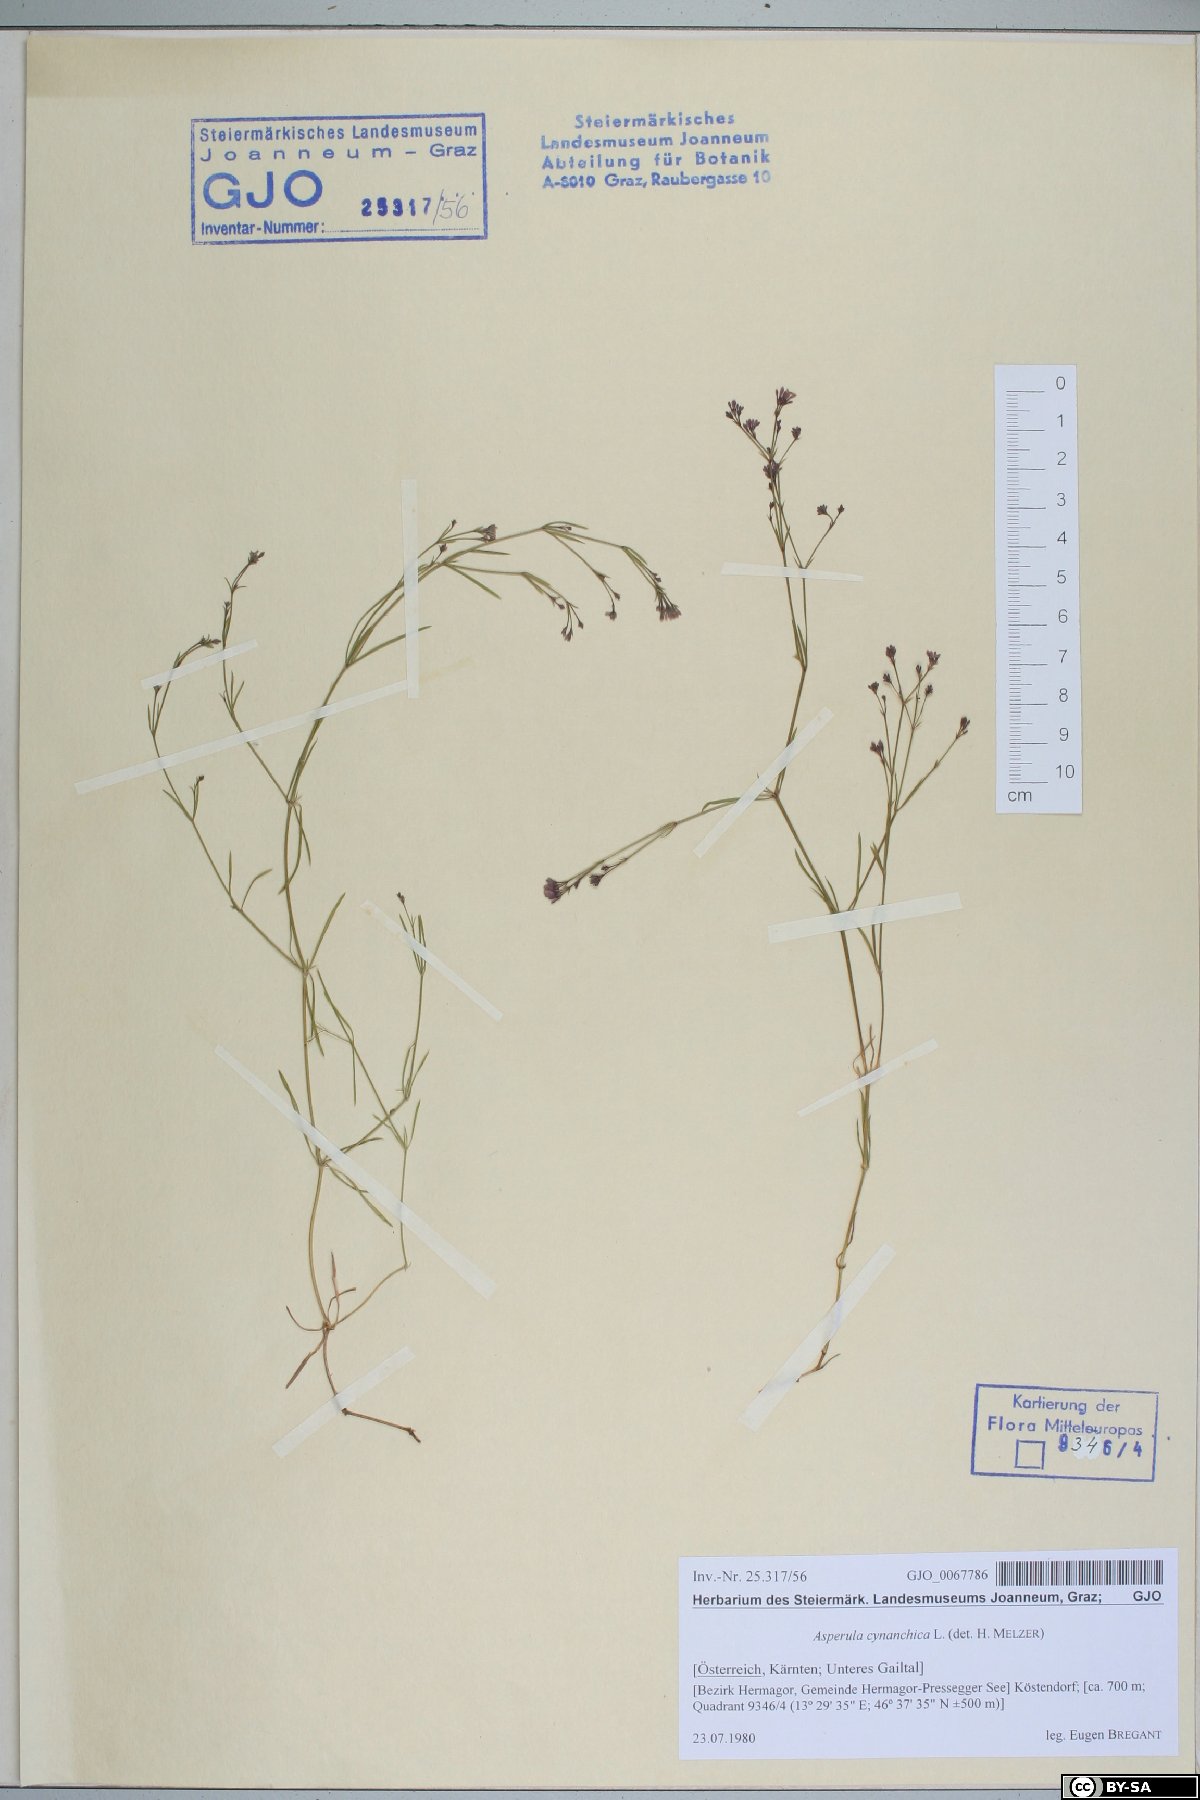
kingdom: Plantae
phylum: Tracheophyta
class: Magnoliopsida
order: Gentianales
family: Rubiaceae
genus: Cynanchica
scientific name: Cynanchica pyrenaica
